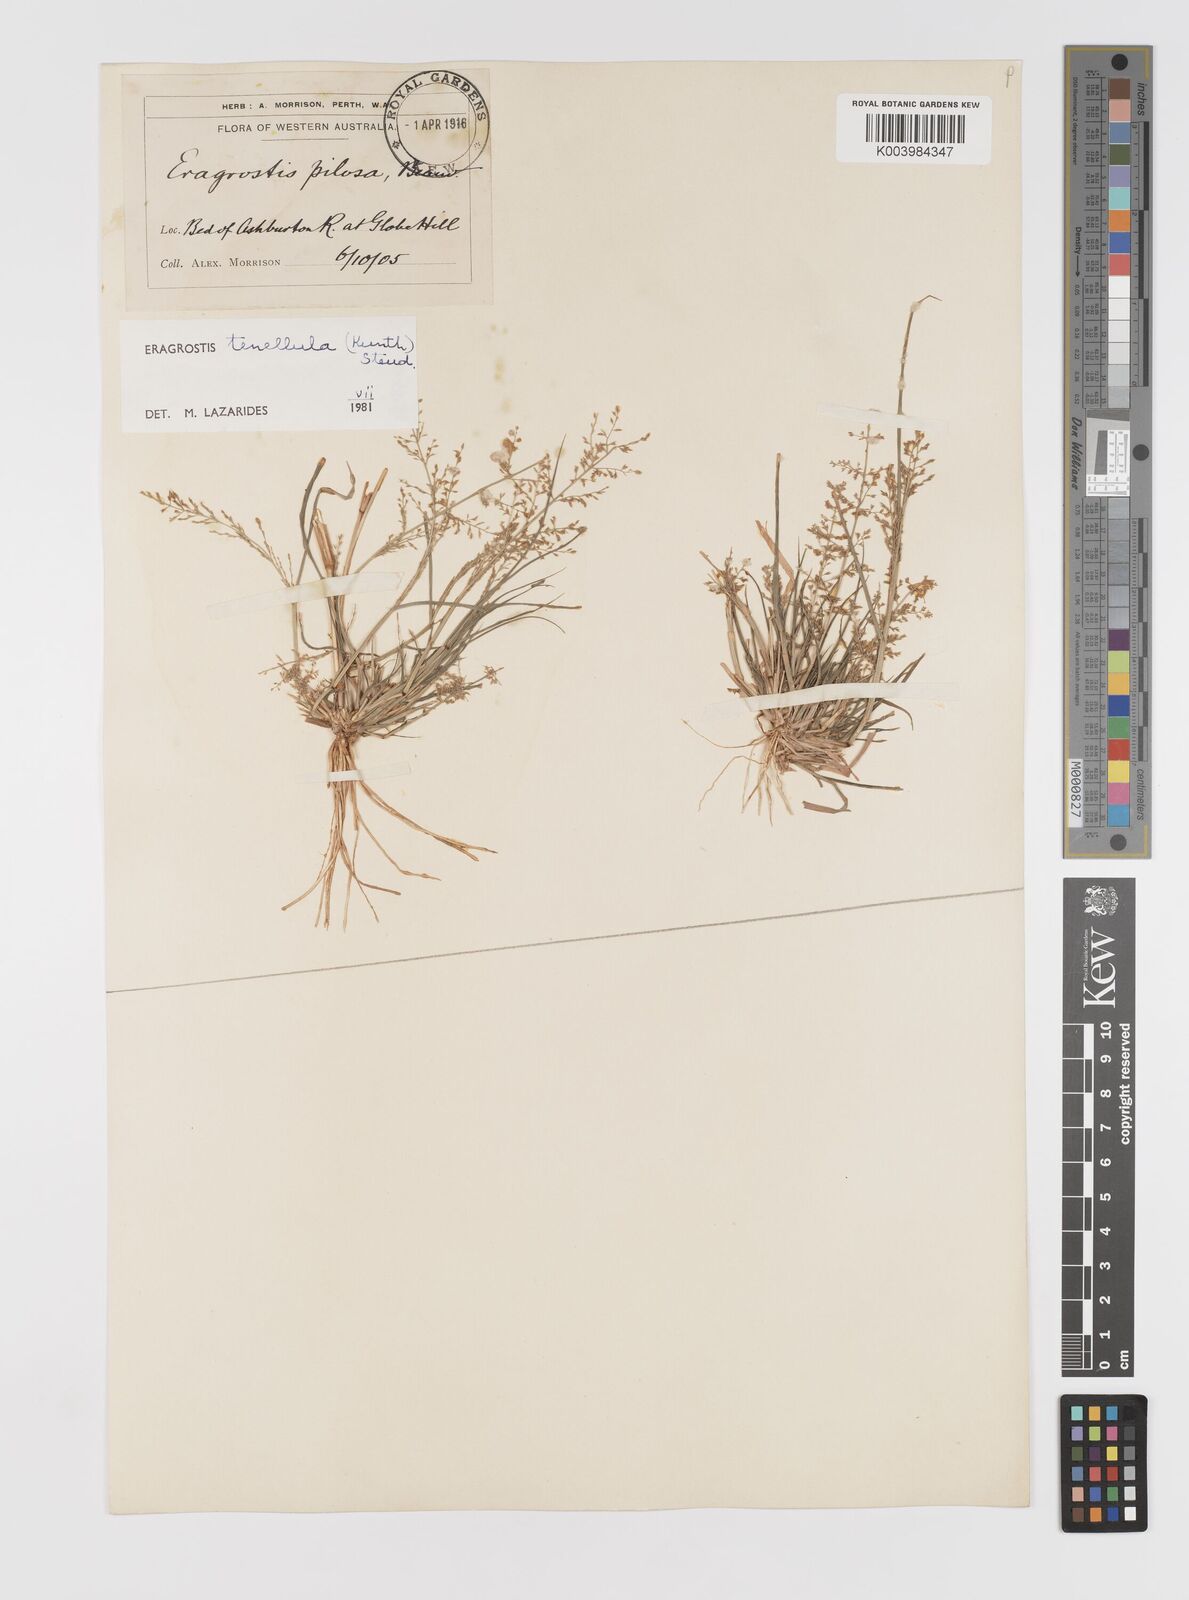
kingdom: Plantae
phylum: Tracheophyta
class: Liliopsida
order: Poales
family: Poaceae
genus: Eragrostis
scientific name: Eragrostis tenellula
